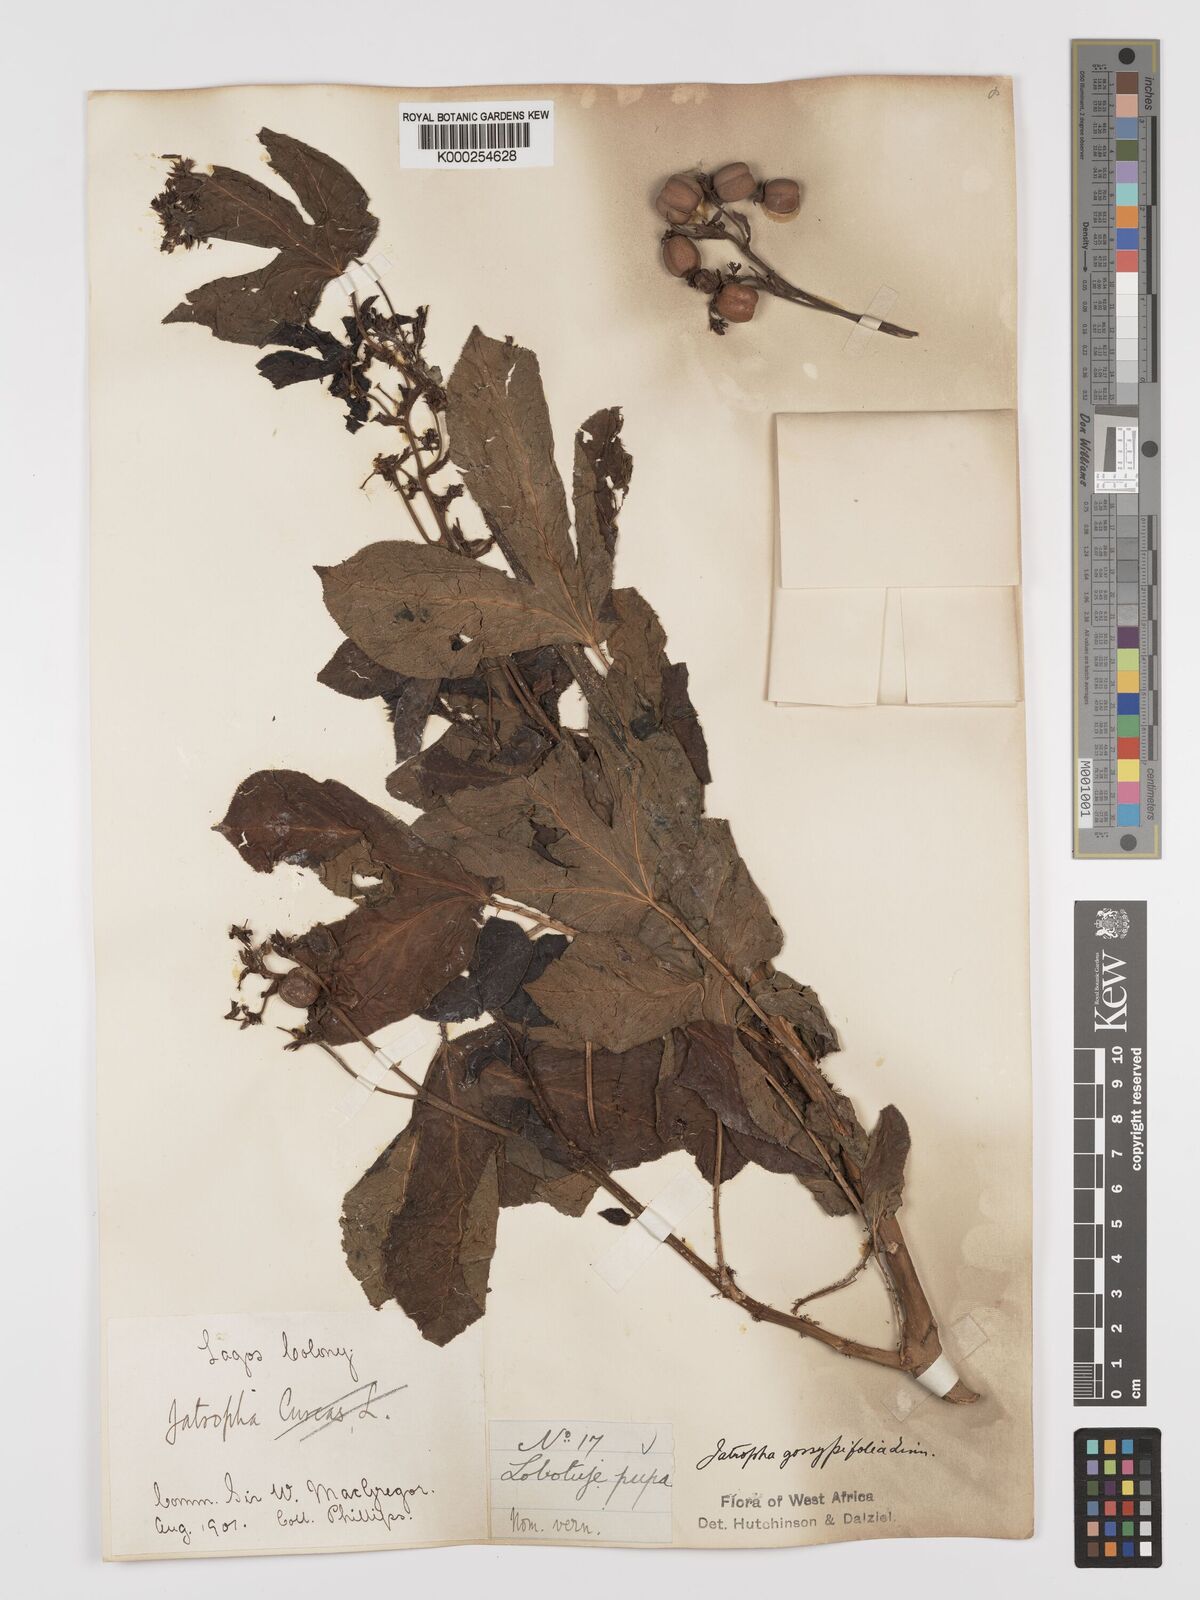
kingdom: Plantae
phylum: Tracheophyta
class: Magnoliopsida
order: Malpighiales
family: Euphorbiaceae
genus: Jatropha
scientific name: Jatropha gossypiifolia
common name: Bellyache bush
